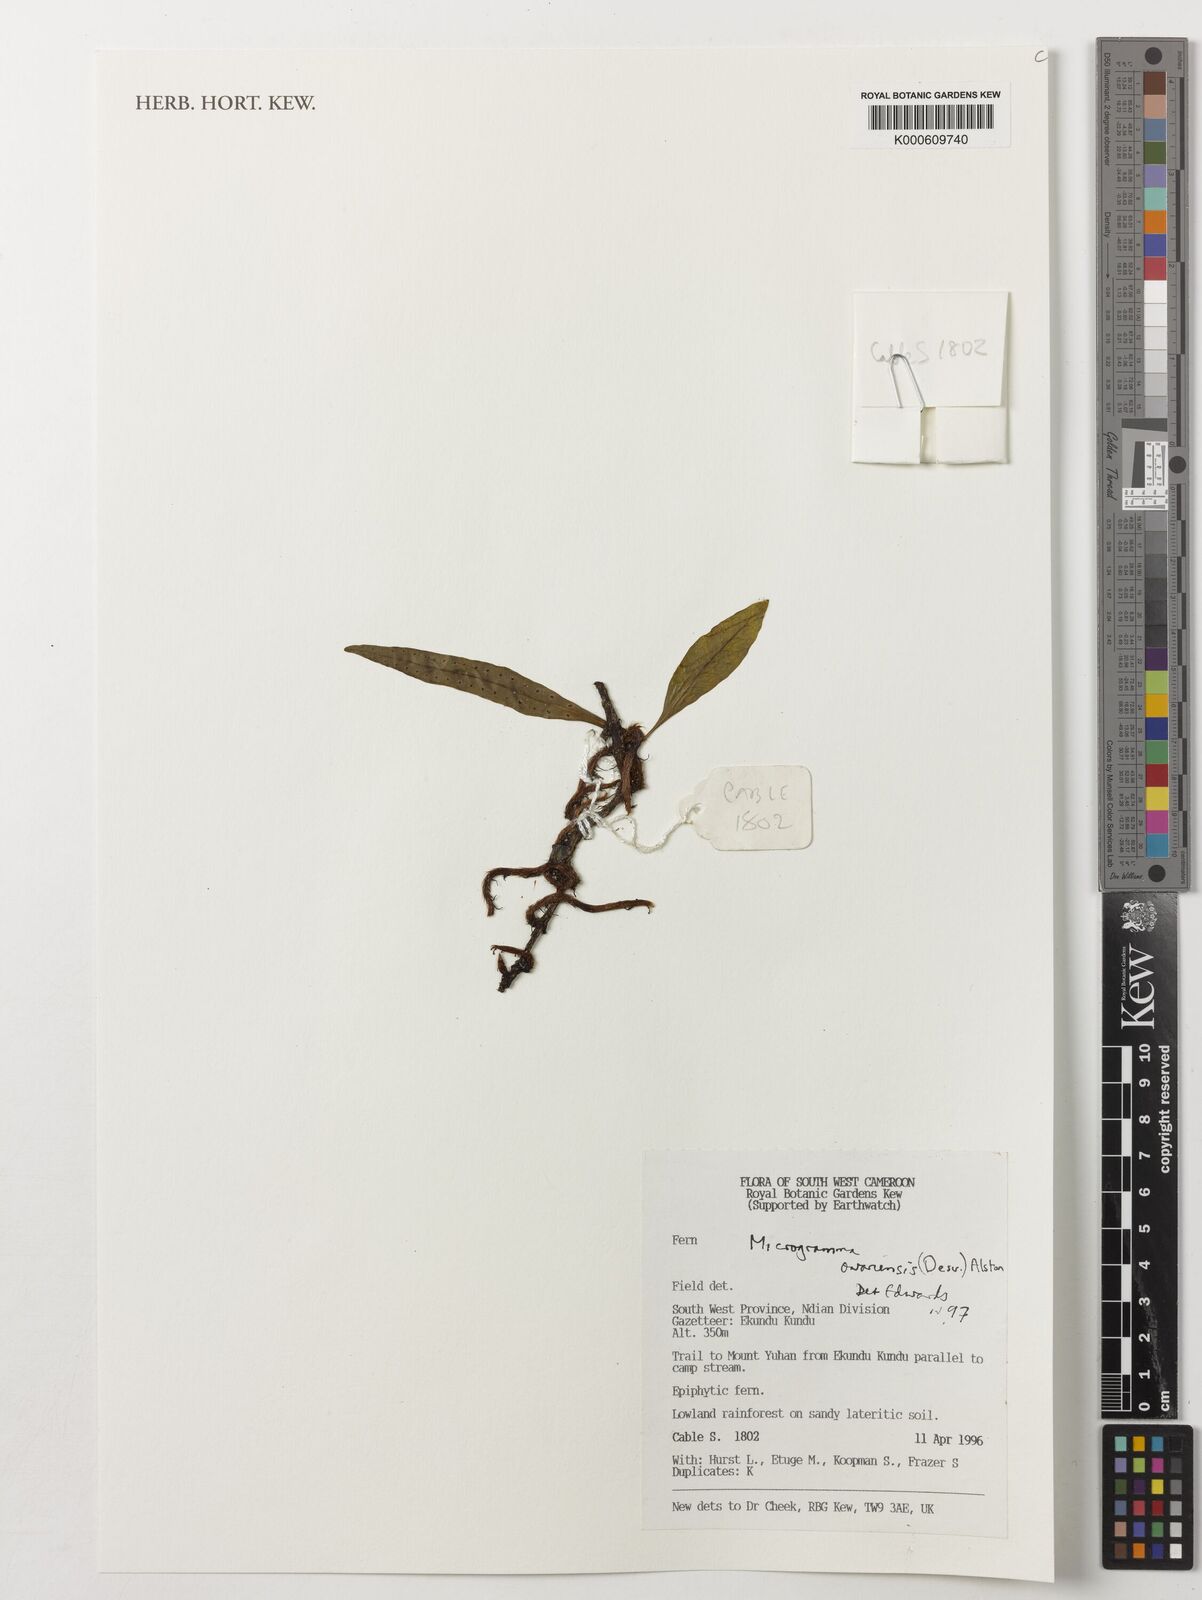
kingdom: Plantae
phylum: Tracheophyta
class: Polypodiopsida
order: Polypodiales
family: Polypodiaceae
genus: Microgramma
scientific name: Microgramma mauritiana
